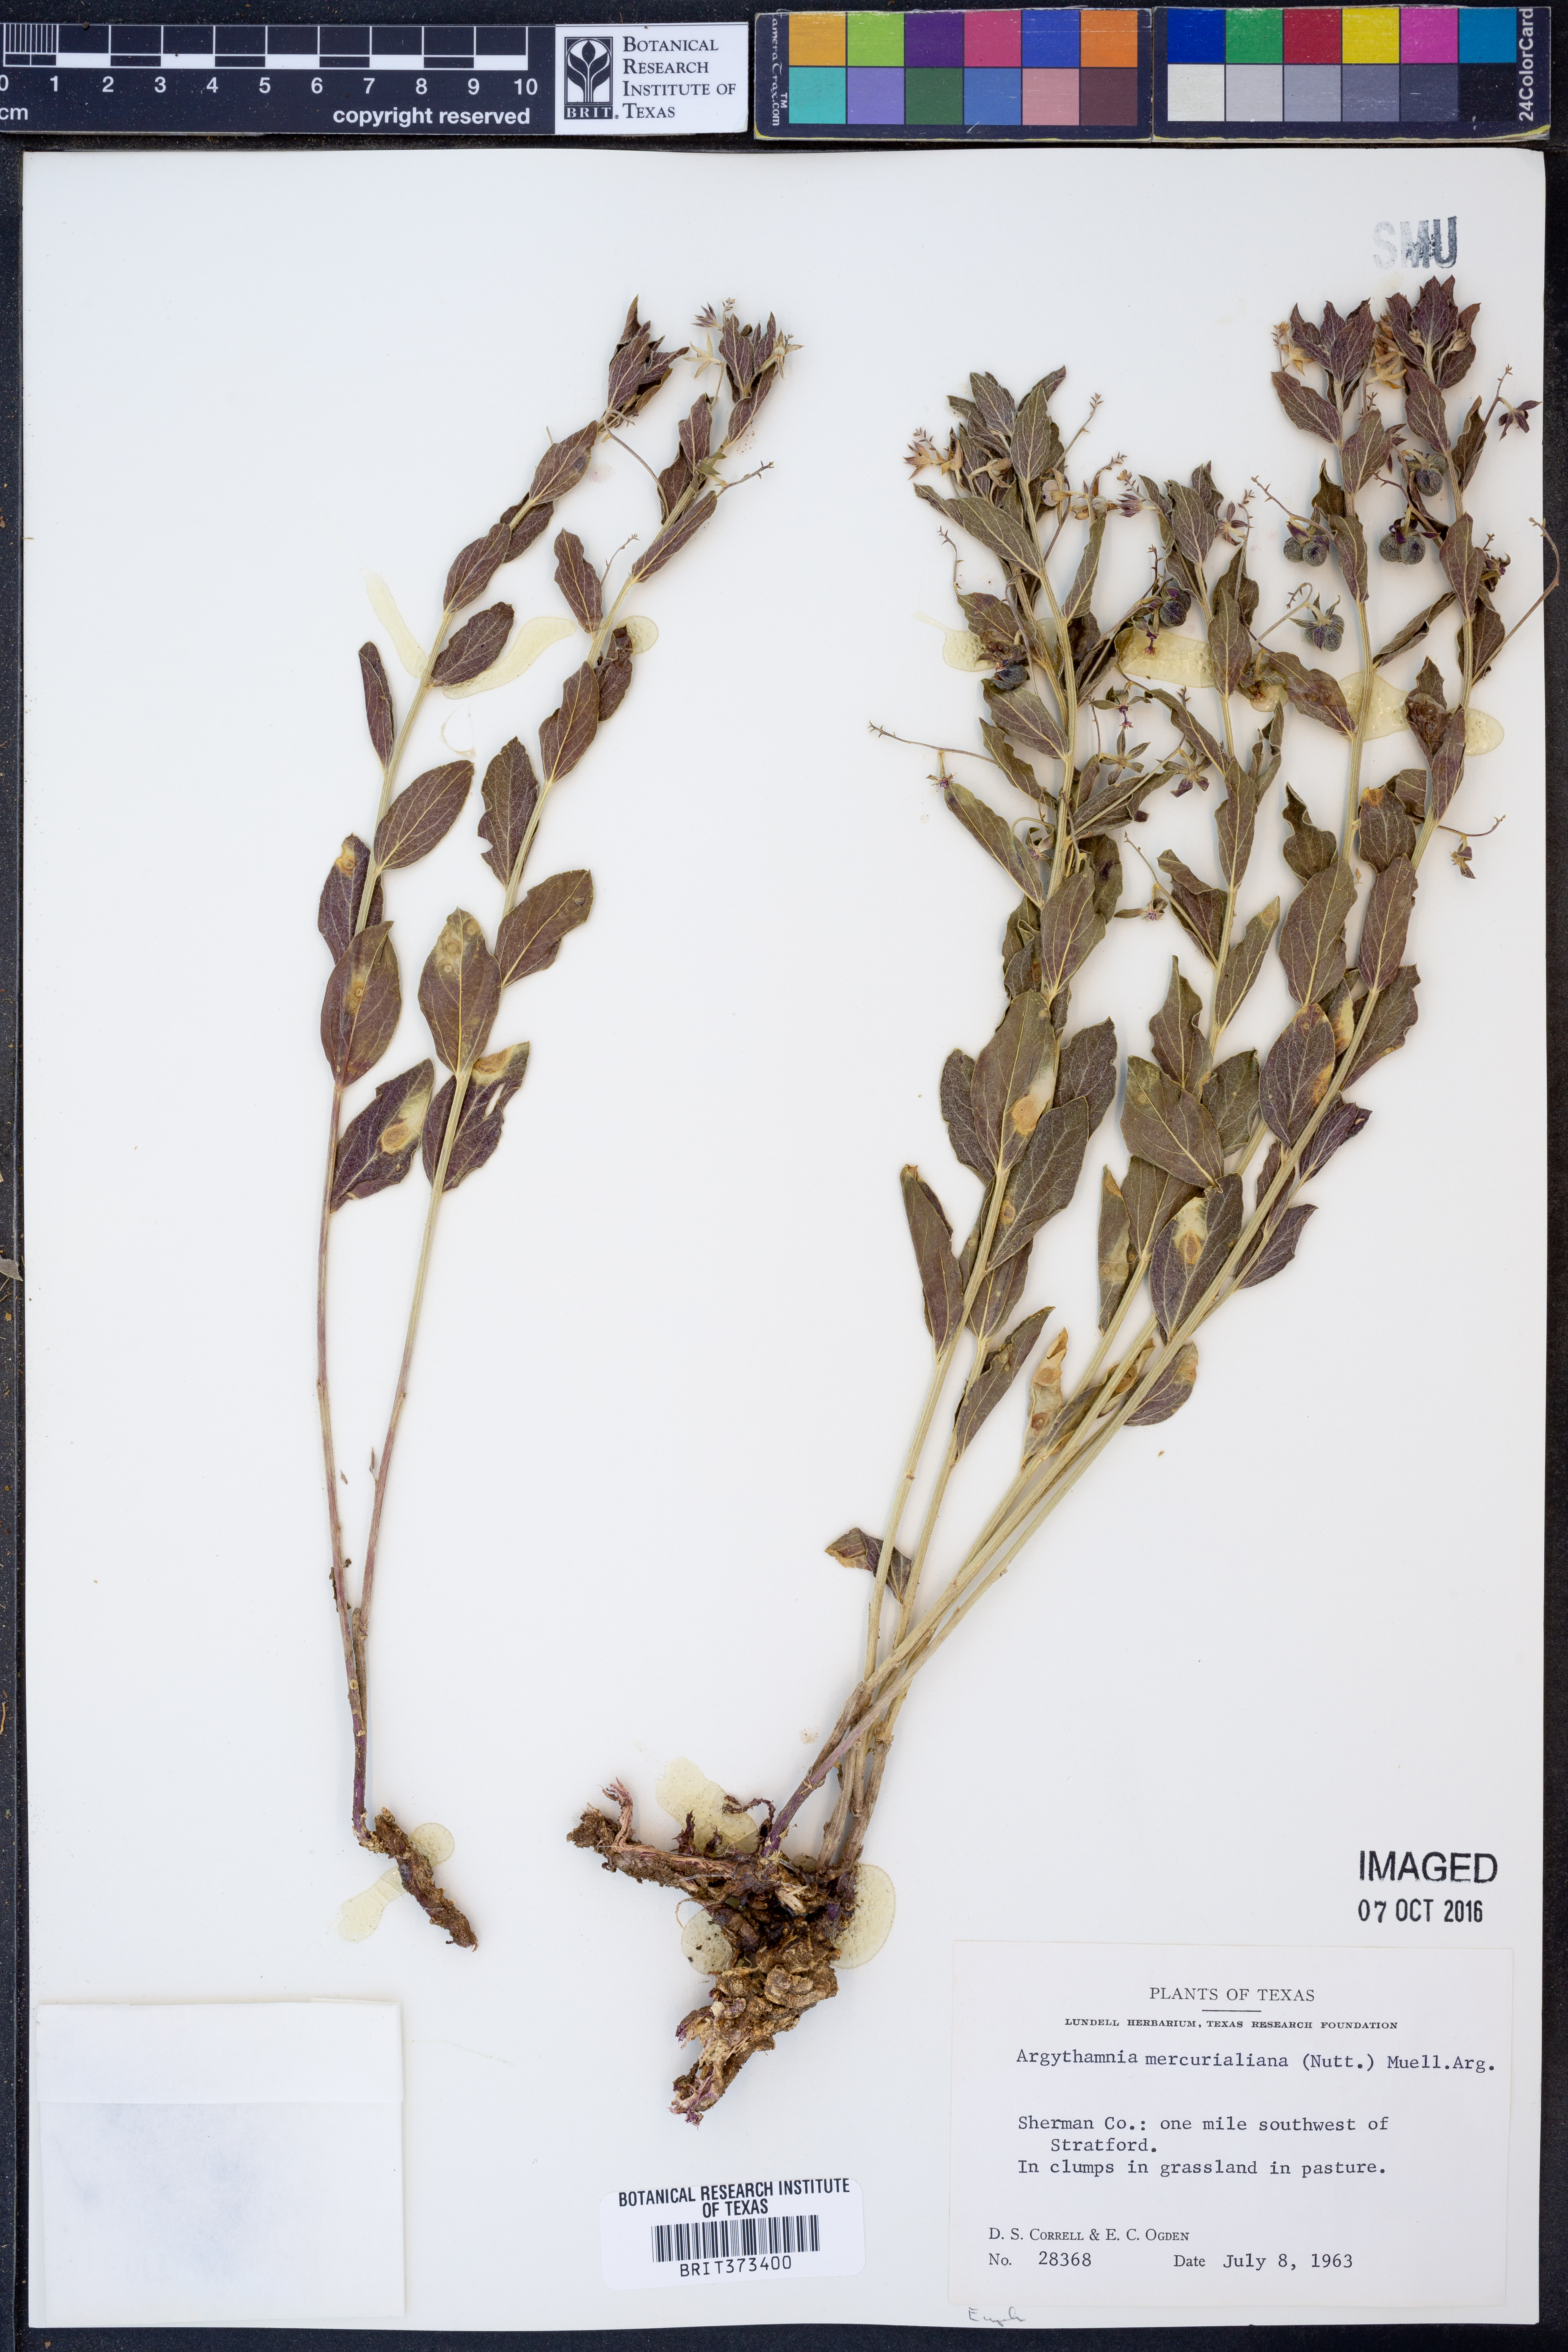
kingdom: Plantae
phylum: Tracheophyta
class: Magnoliopsida
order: Malpighiales
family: Euphorbiaceae
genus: Ditaxis
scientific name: Ditaxis mercurialina
